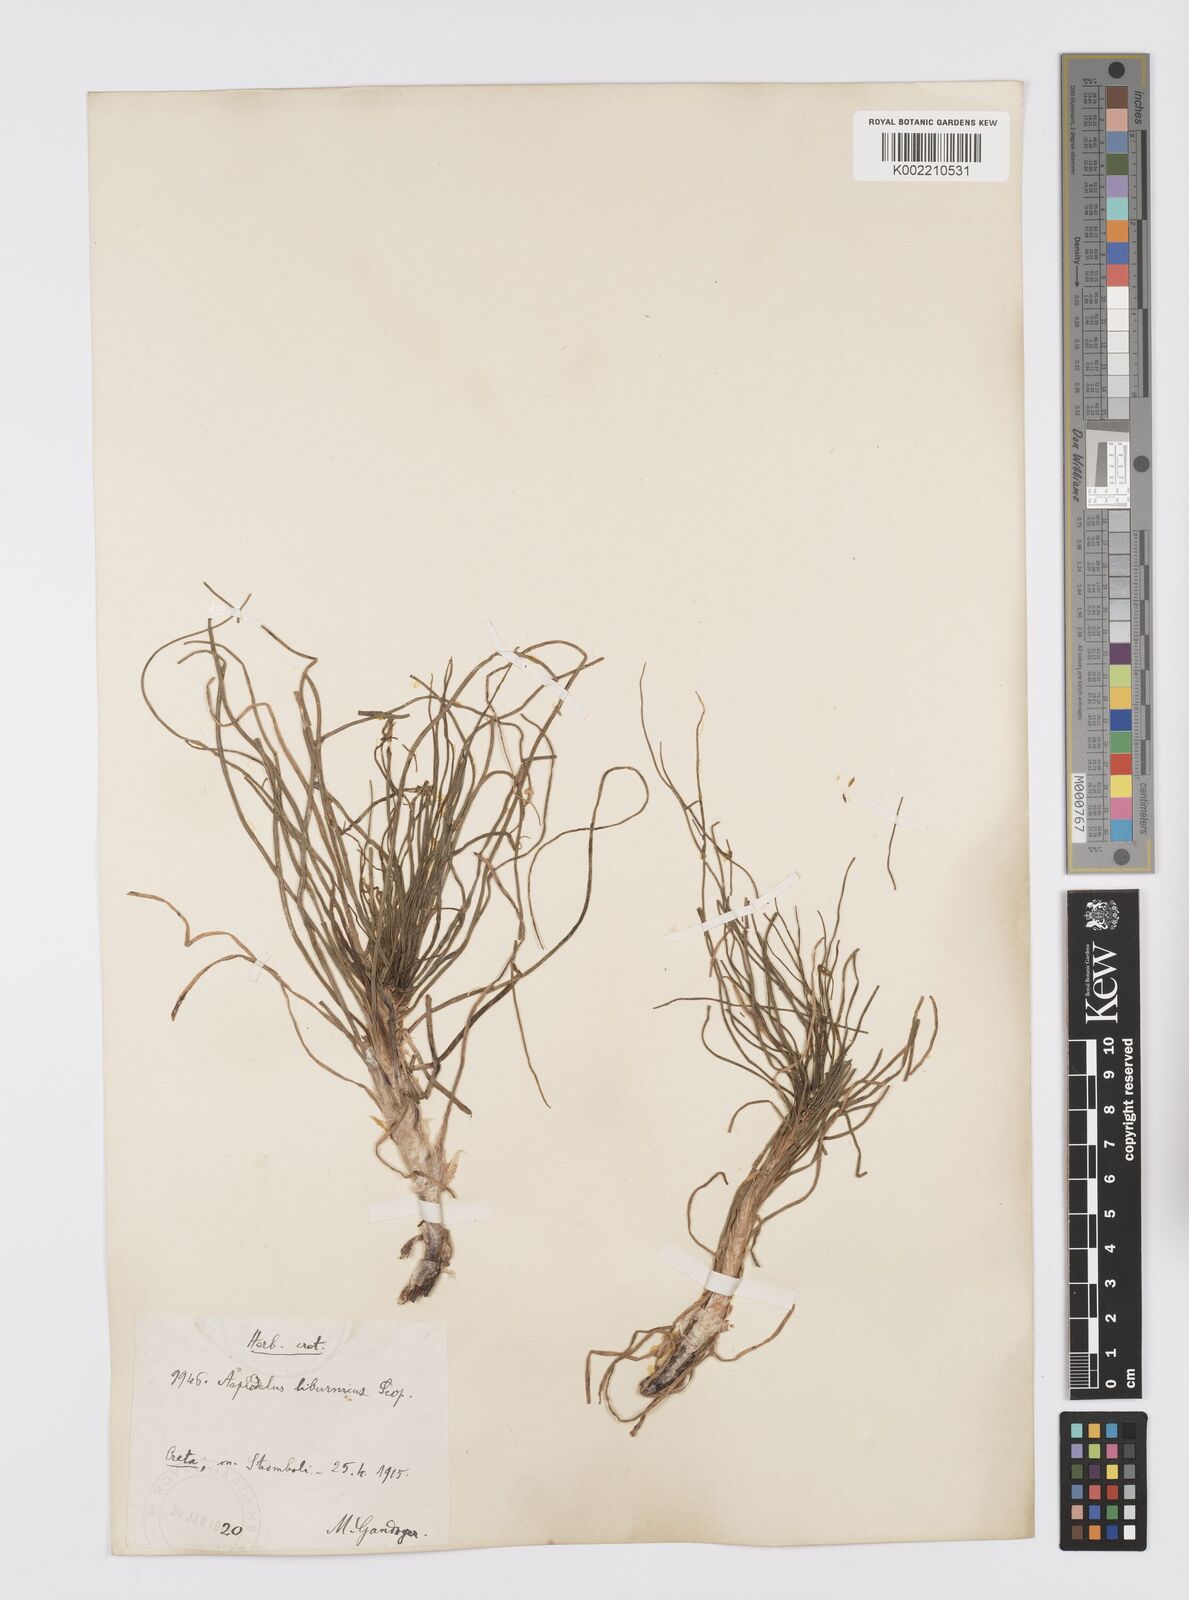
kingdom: Plantae
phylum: Tracheophyta
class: Liliopsida
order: Asparagales
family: Asphodelaceae
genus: Asphodeline
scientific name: Asphodeline liburnica
